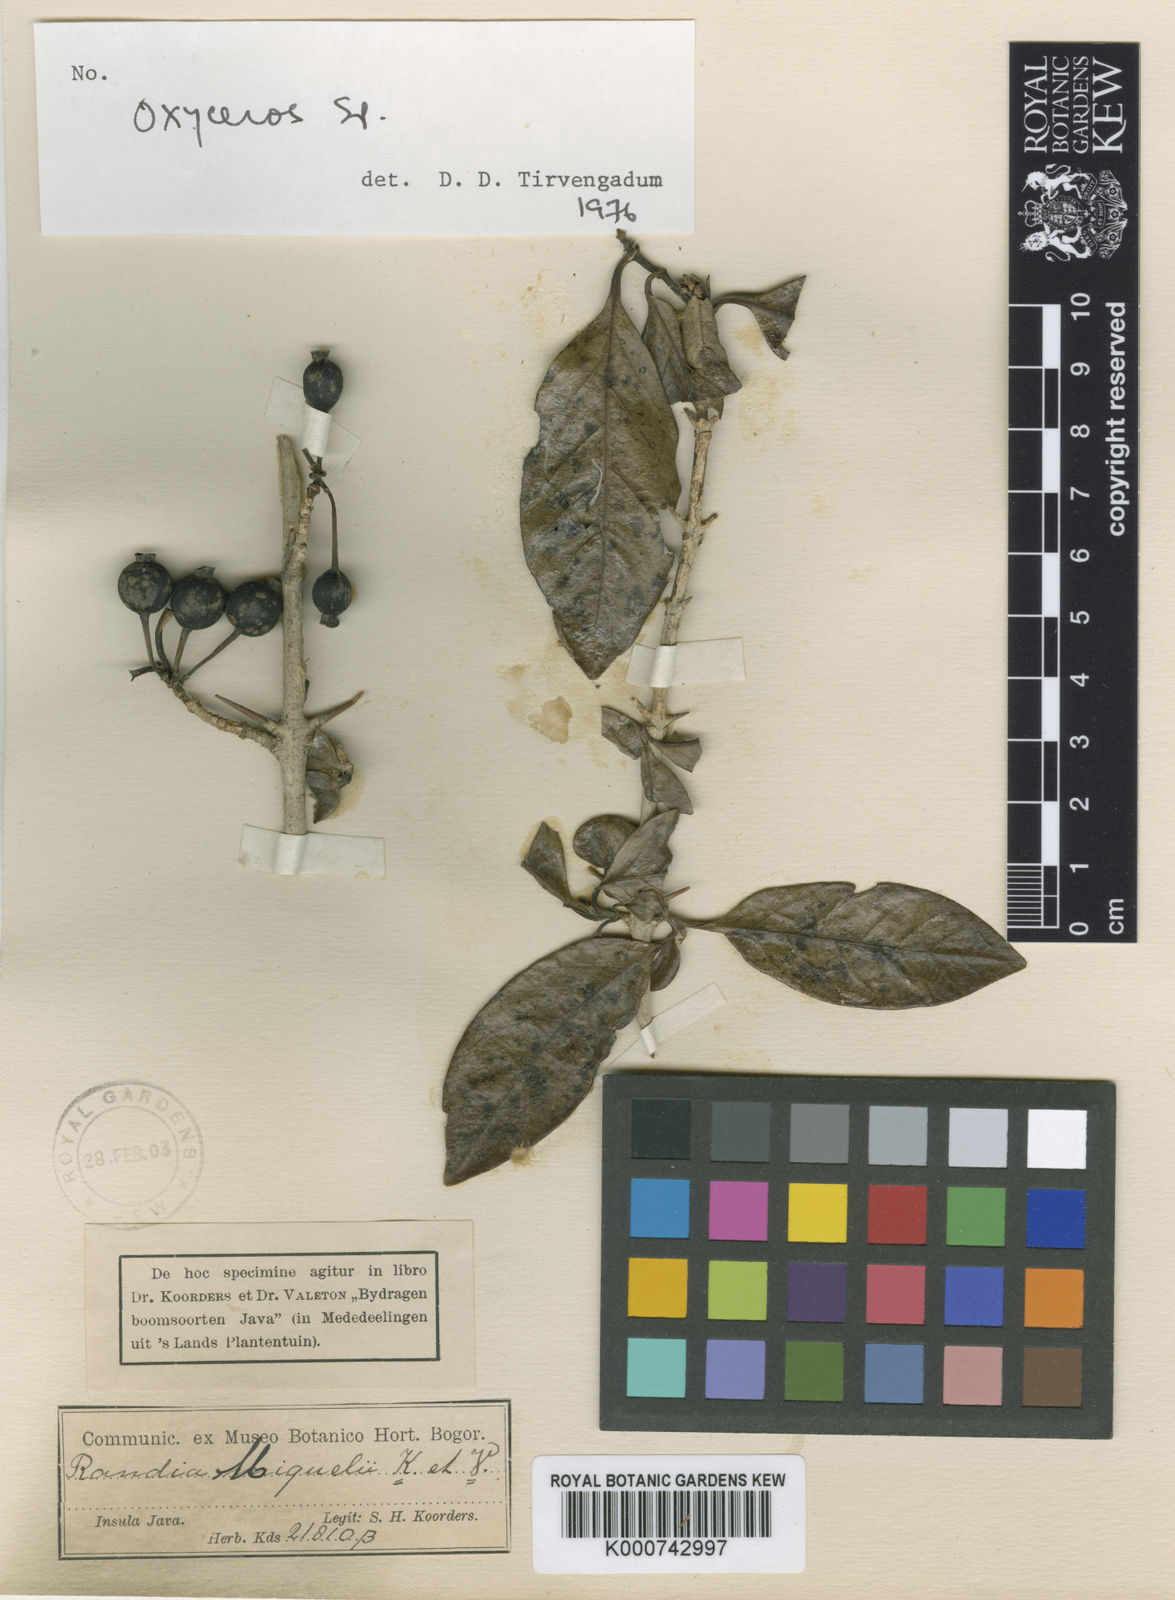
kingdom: Plantae
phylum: Tracheophyta
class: Magnoliopsida
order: Gentianales
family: Rubiaceae
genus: Benkara
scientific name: Benkara
